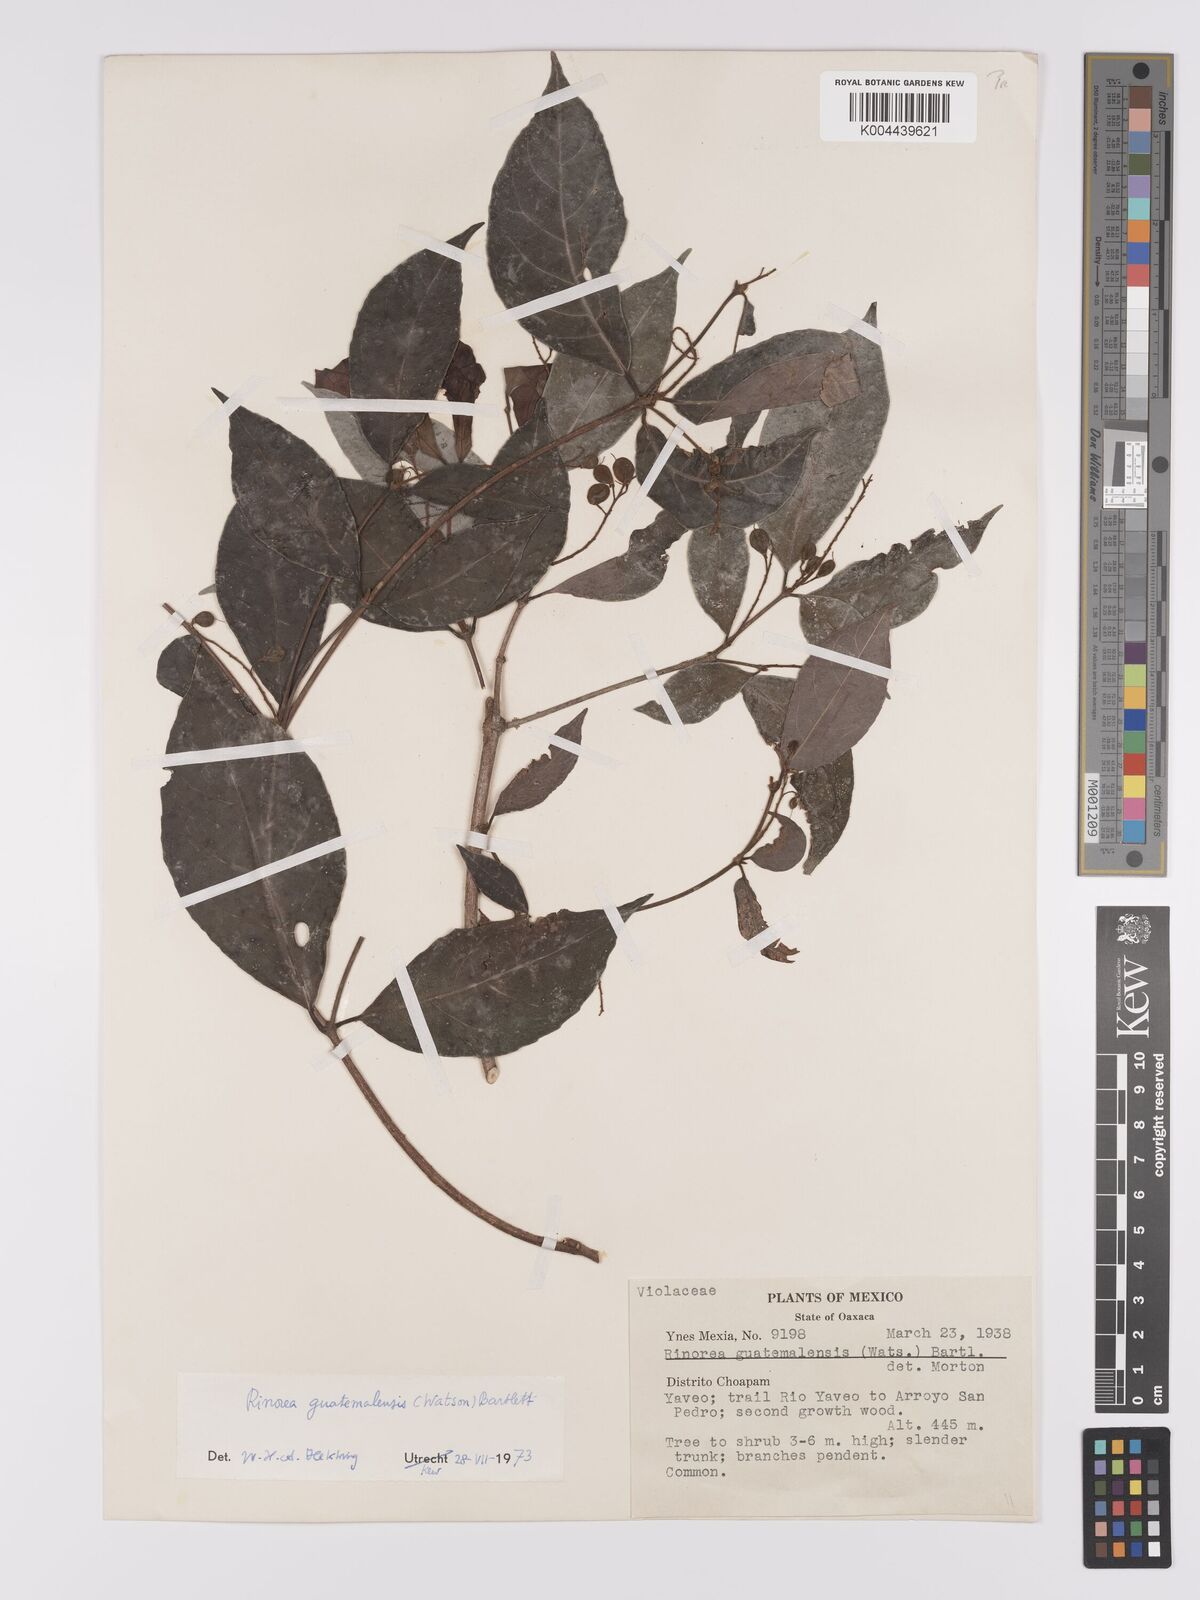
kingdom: Plantae
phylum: Tracheophyta
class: Magnoliopsida
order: Malpighiales
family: Violaceae
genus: Rinorea
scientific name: Rinorea guatemalensis
